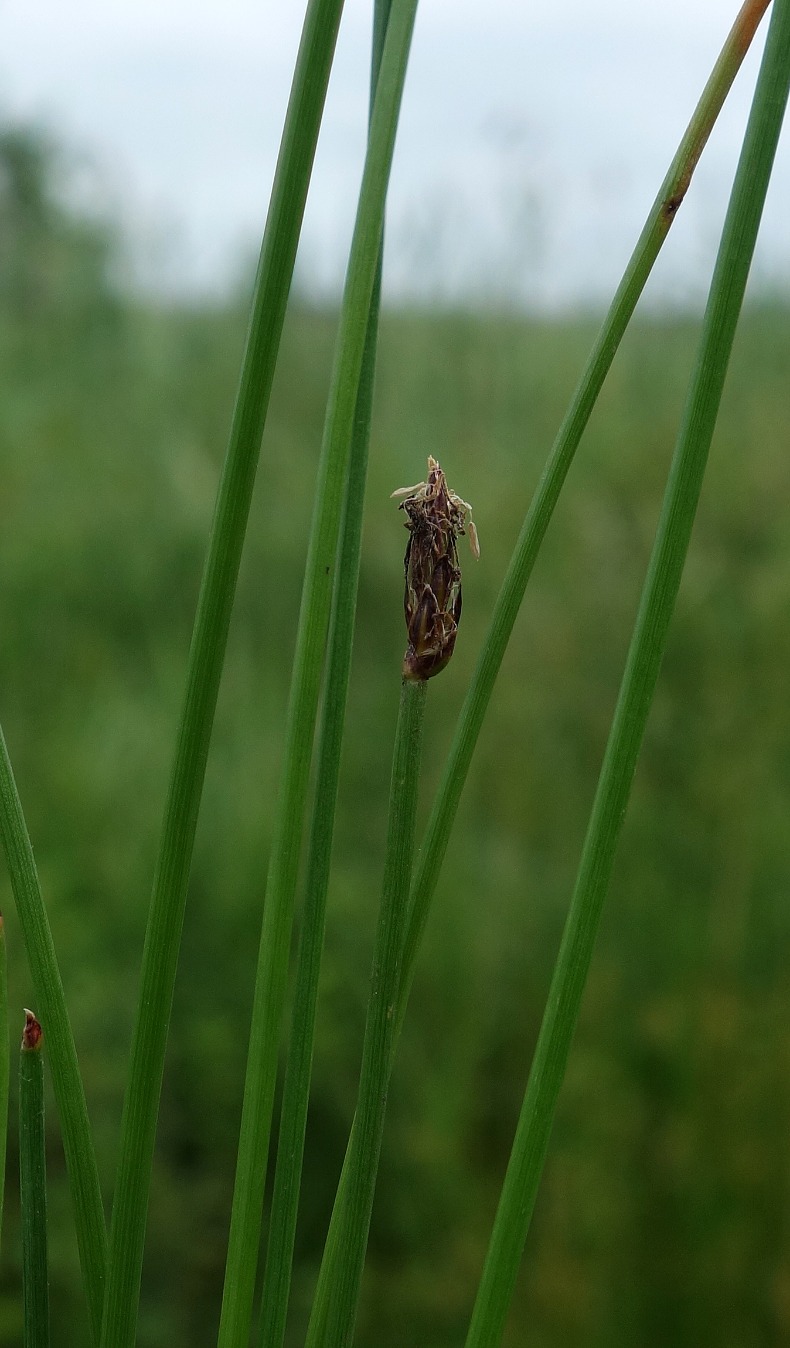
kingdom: Plantae
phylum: Tracheophyta
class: Liliopsida
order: Poales
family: Cyperaceae
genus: Eleocharis
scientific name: Eleocharis uniglumis
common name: Enskællet sumpstrå
